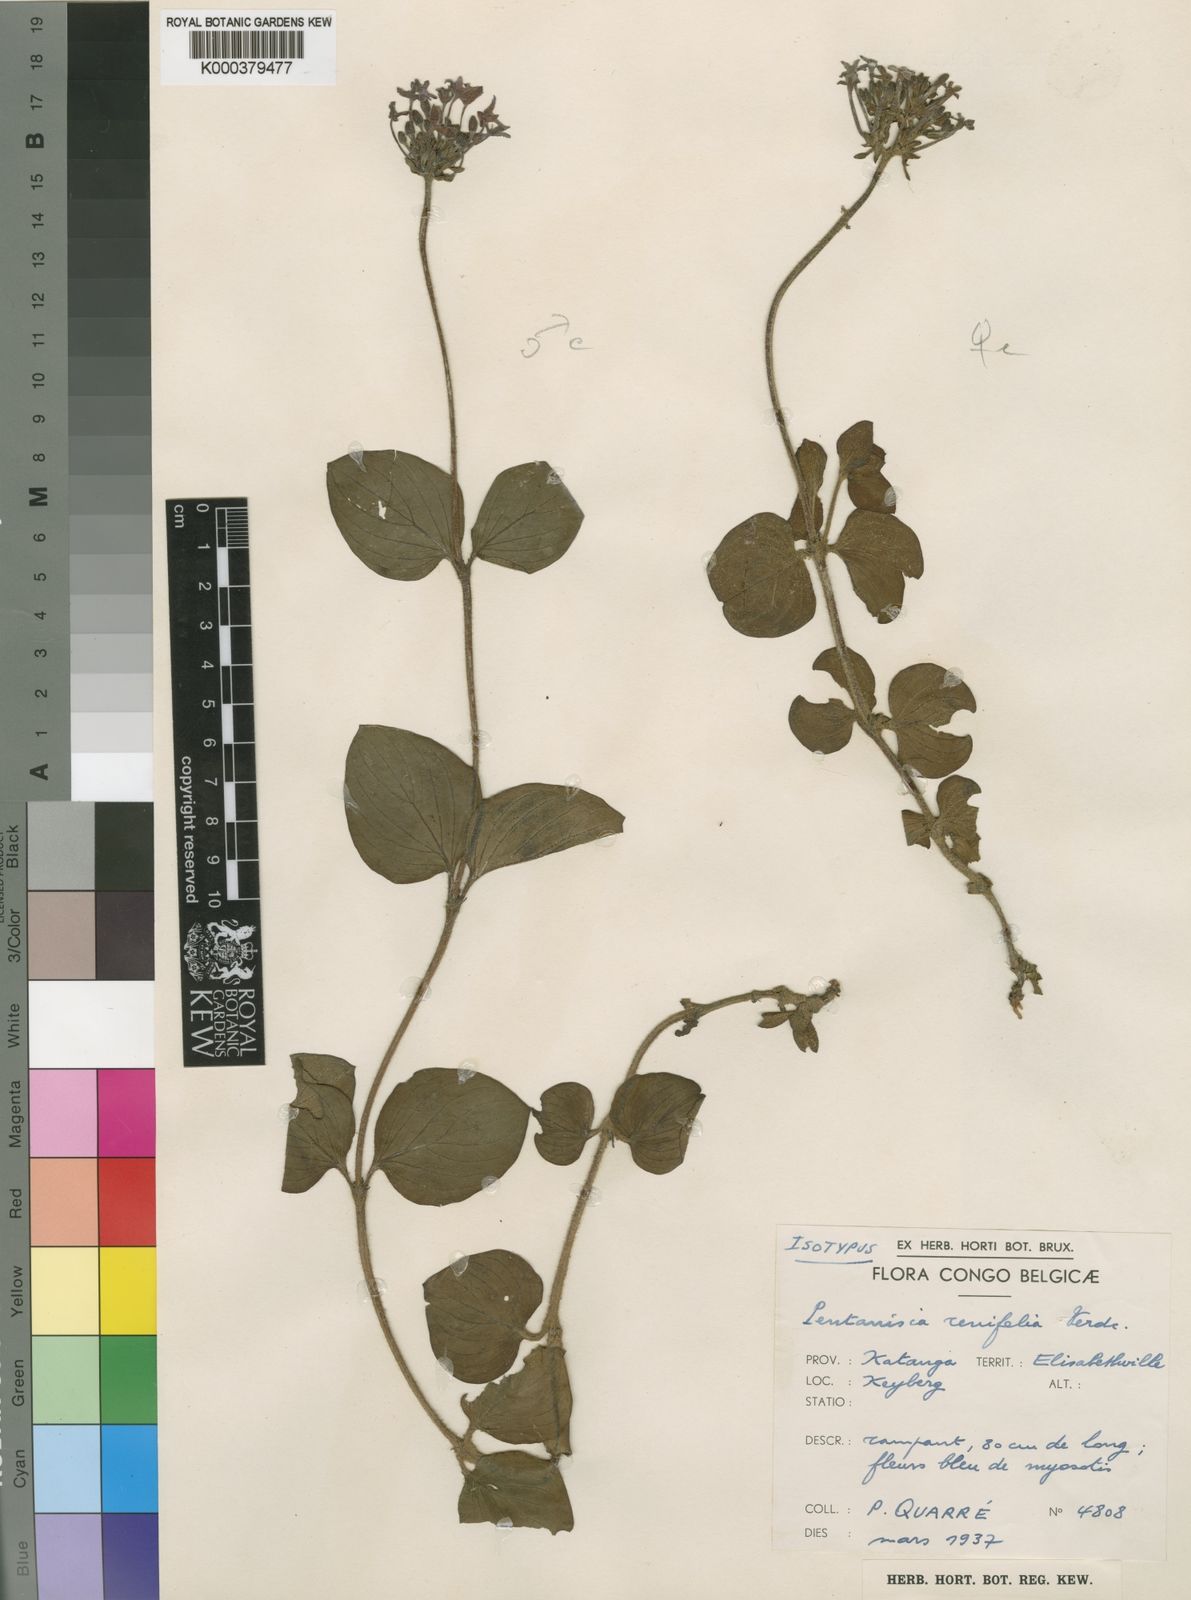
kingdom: Plantae
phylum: Tracheophyta
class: Magnoliopsida
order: Gentianales
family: Rubiaceae
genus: Pentanisia
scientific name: Pentanisia renifolia
